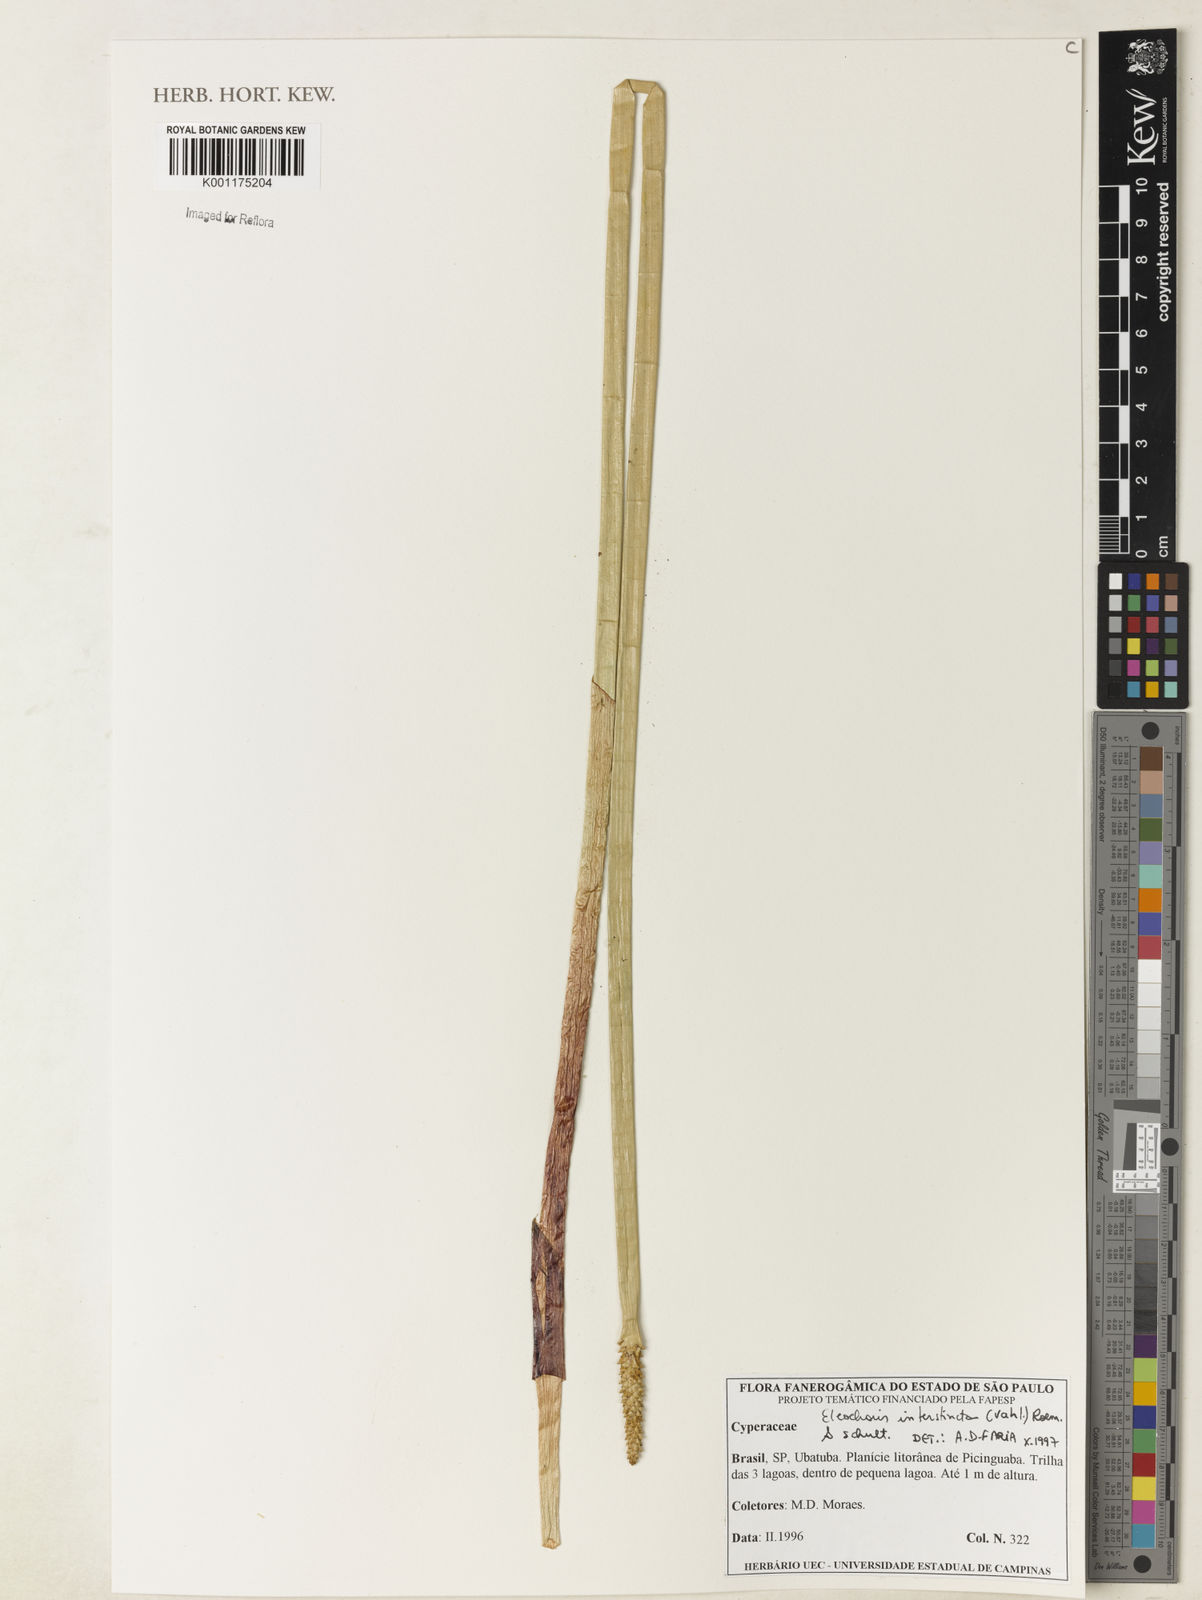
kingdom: Plantae
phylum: Tracheophyta
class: Liliopsida
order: Poales
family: Cyperaceae
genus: Eleocharis
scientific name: Eleocharis interstincta
